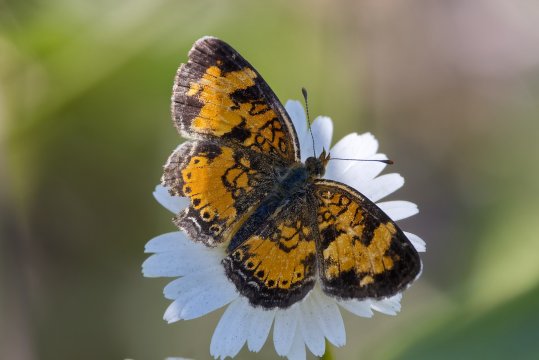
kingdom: Animalia
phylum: Arthropoda
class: Insecta
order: Lepidoptera
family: Nymphalidae
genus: Phyciodes
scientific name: Phyciodes tharos
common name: Northern Crescent
